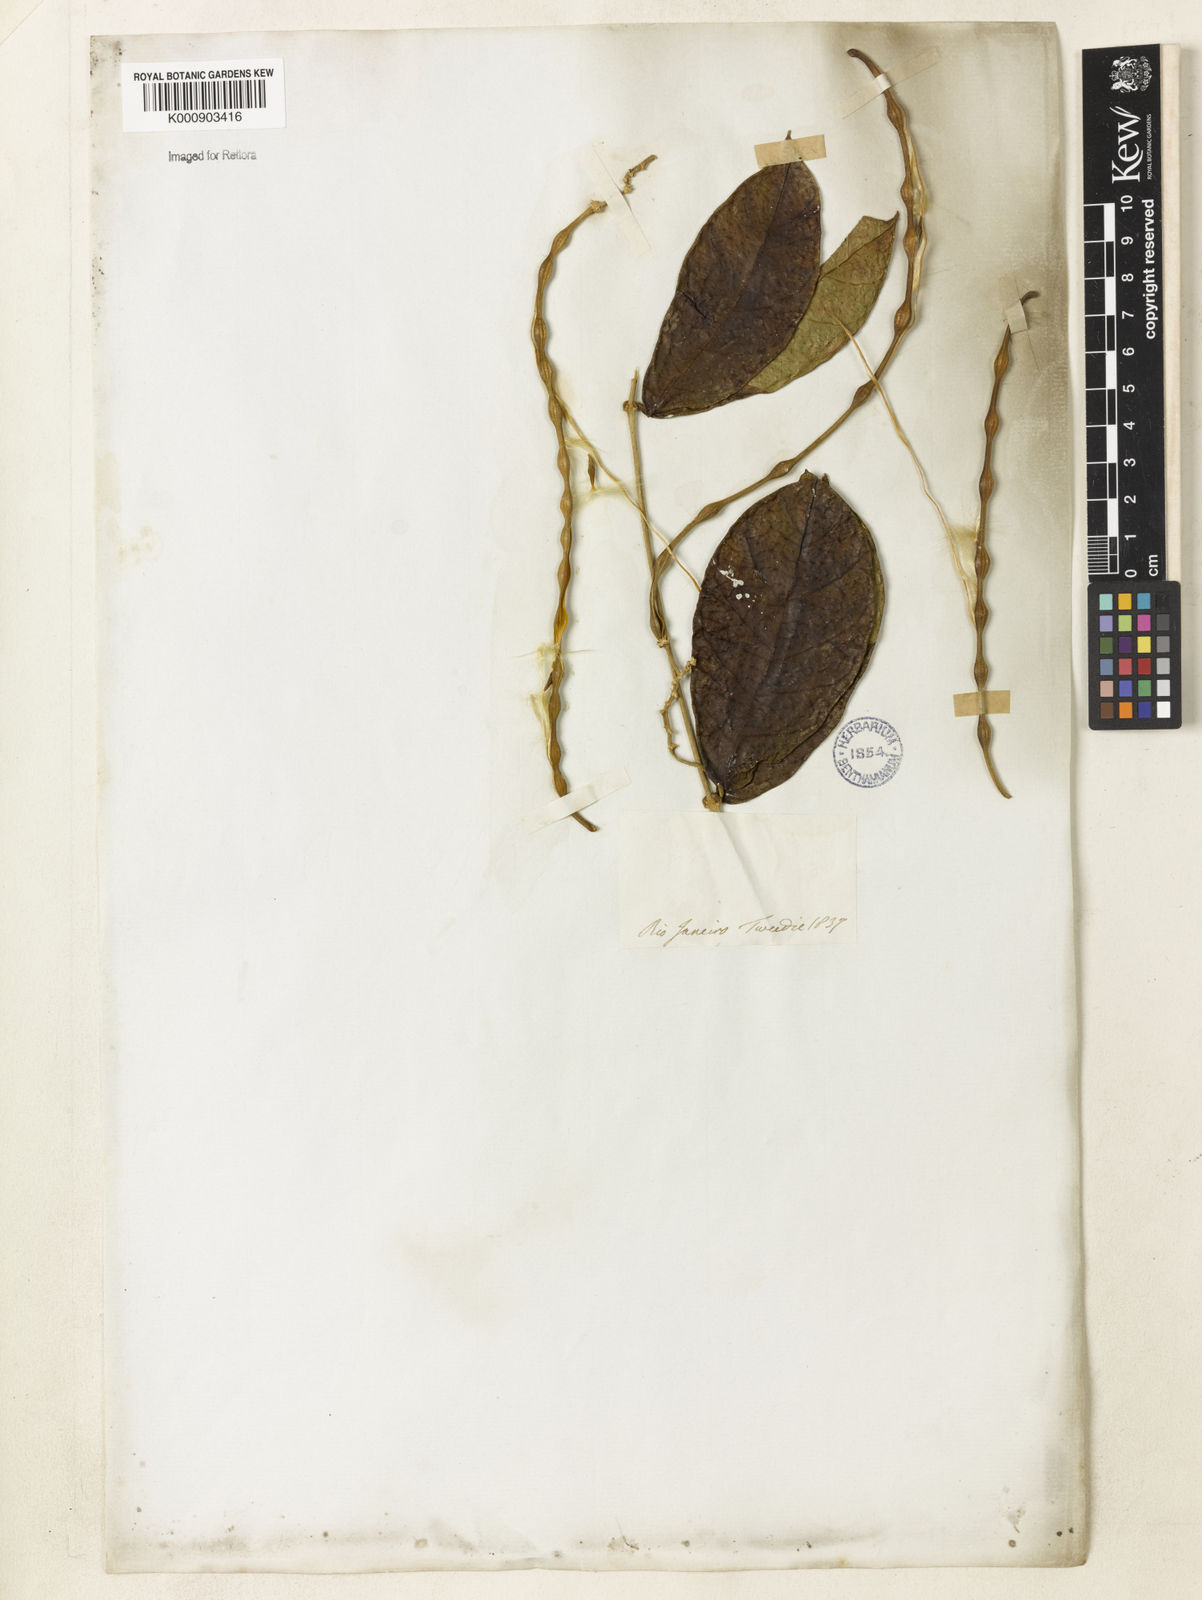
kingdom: Plantae
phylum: Tracheophyta
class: Magnoliopsida
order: Gentianales
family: Apocynaceae
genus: Prestonia
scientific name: Prestonia denticulata
